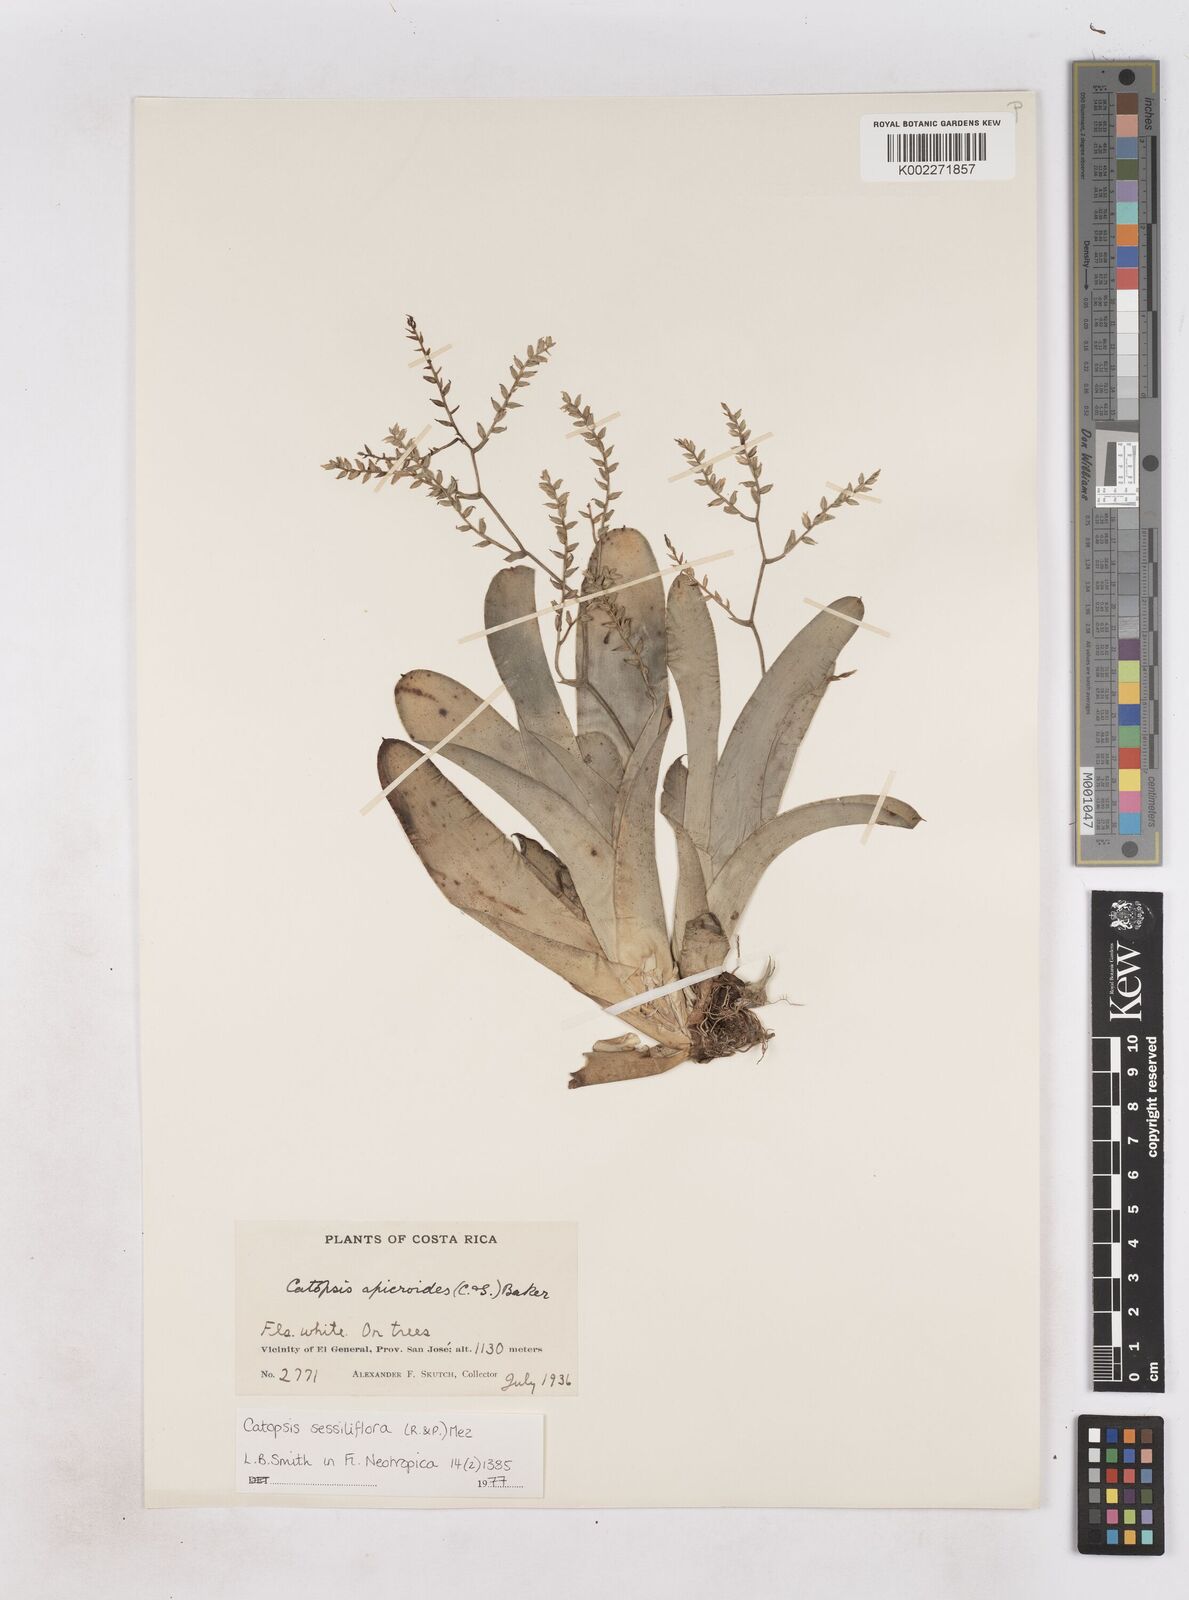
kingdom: Plantae
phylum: Tracheophyta
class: Liliopsida
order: Poales
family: Bromeliaceae
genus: Catopsis
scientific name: Catopsis sessiliflora
